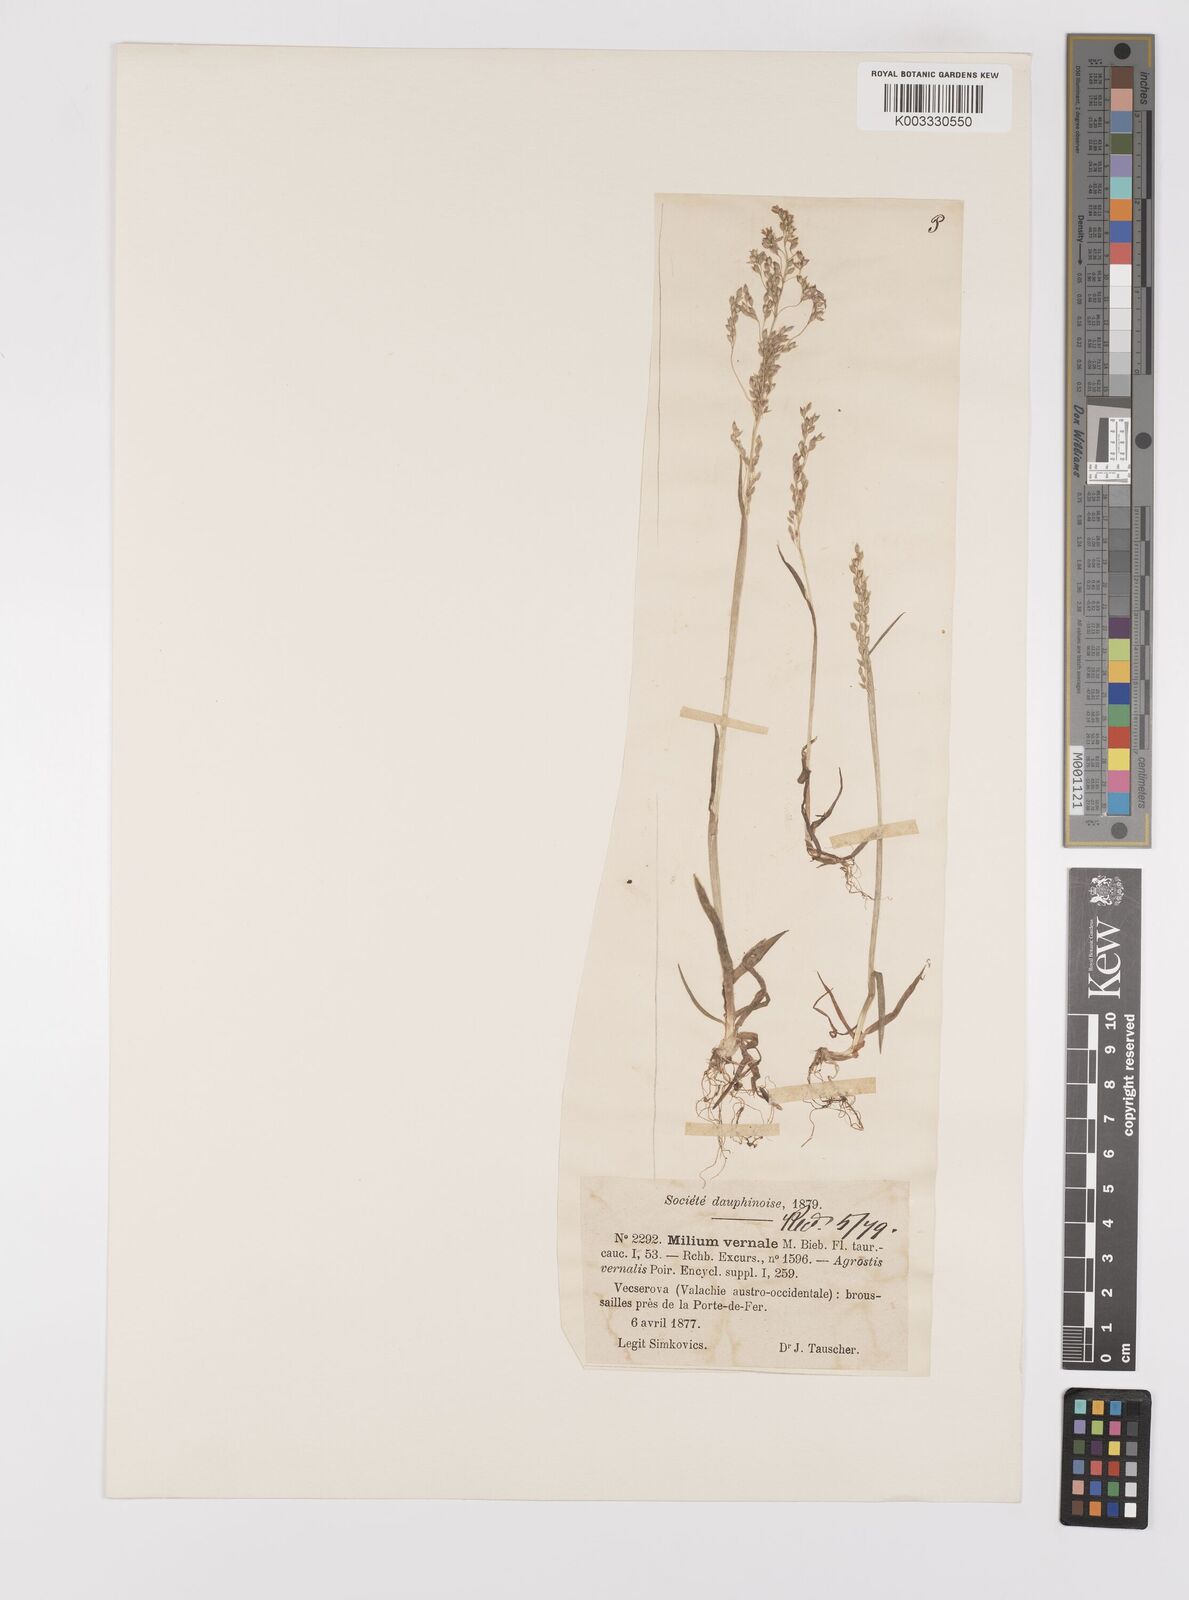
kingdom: Plantae
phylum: Tracheophyta
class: Liliopsida
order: Poales
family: Poaceae
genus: Milium
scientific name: Milium vernale
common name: Early millet
